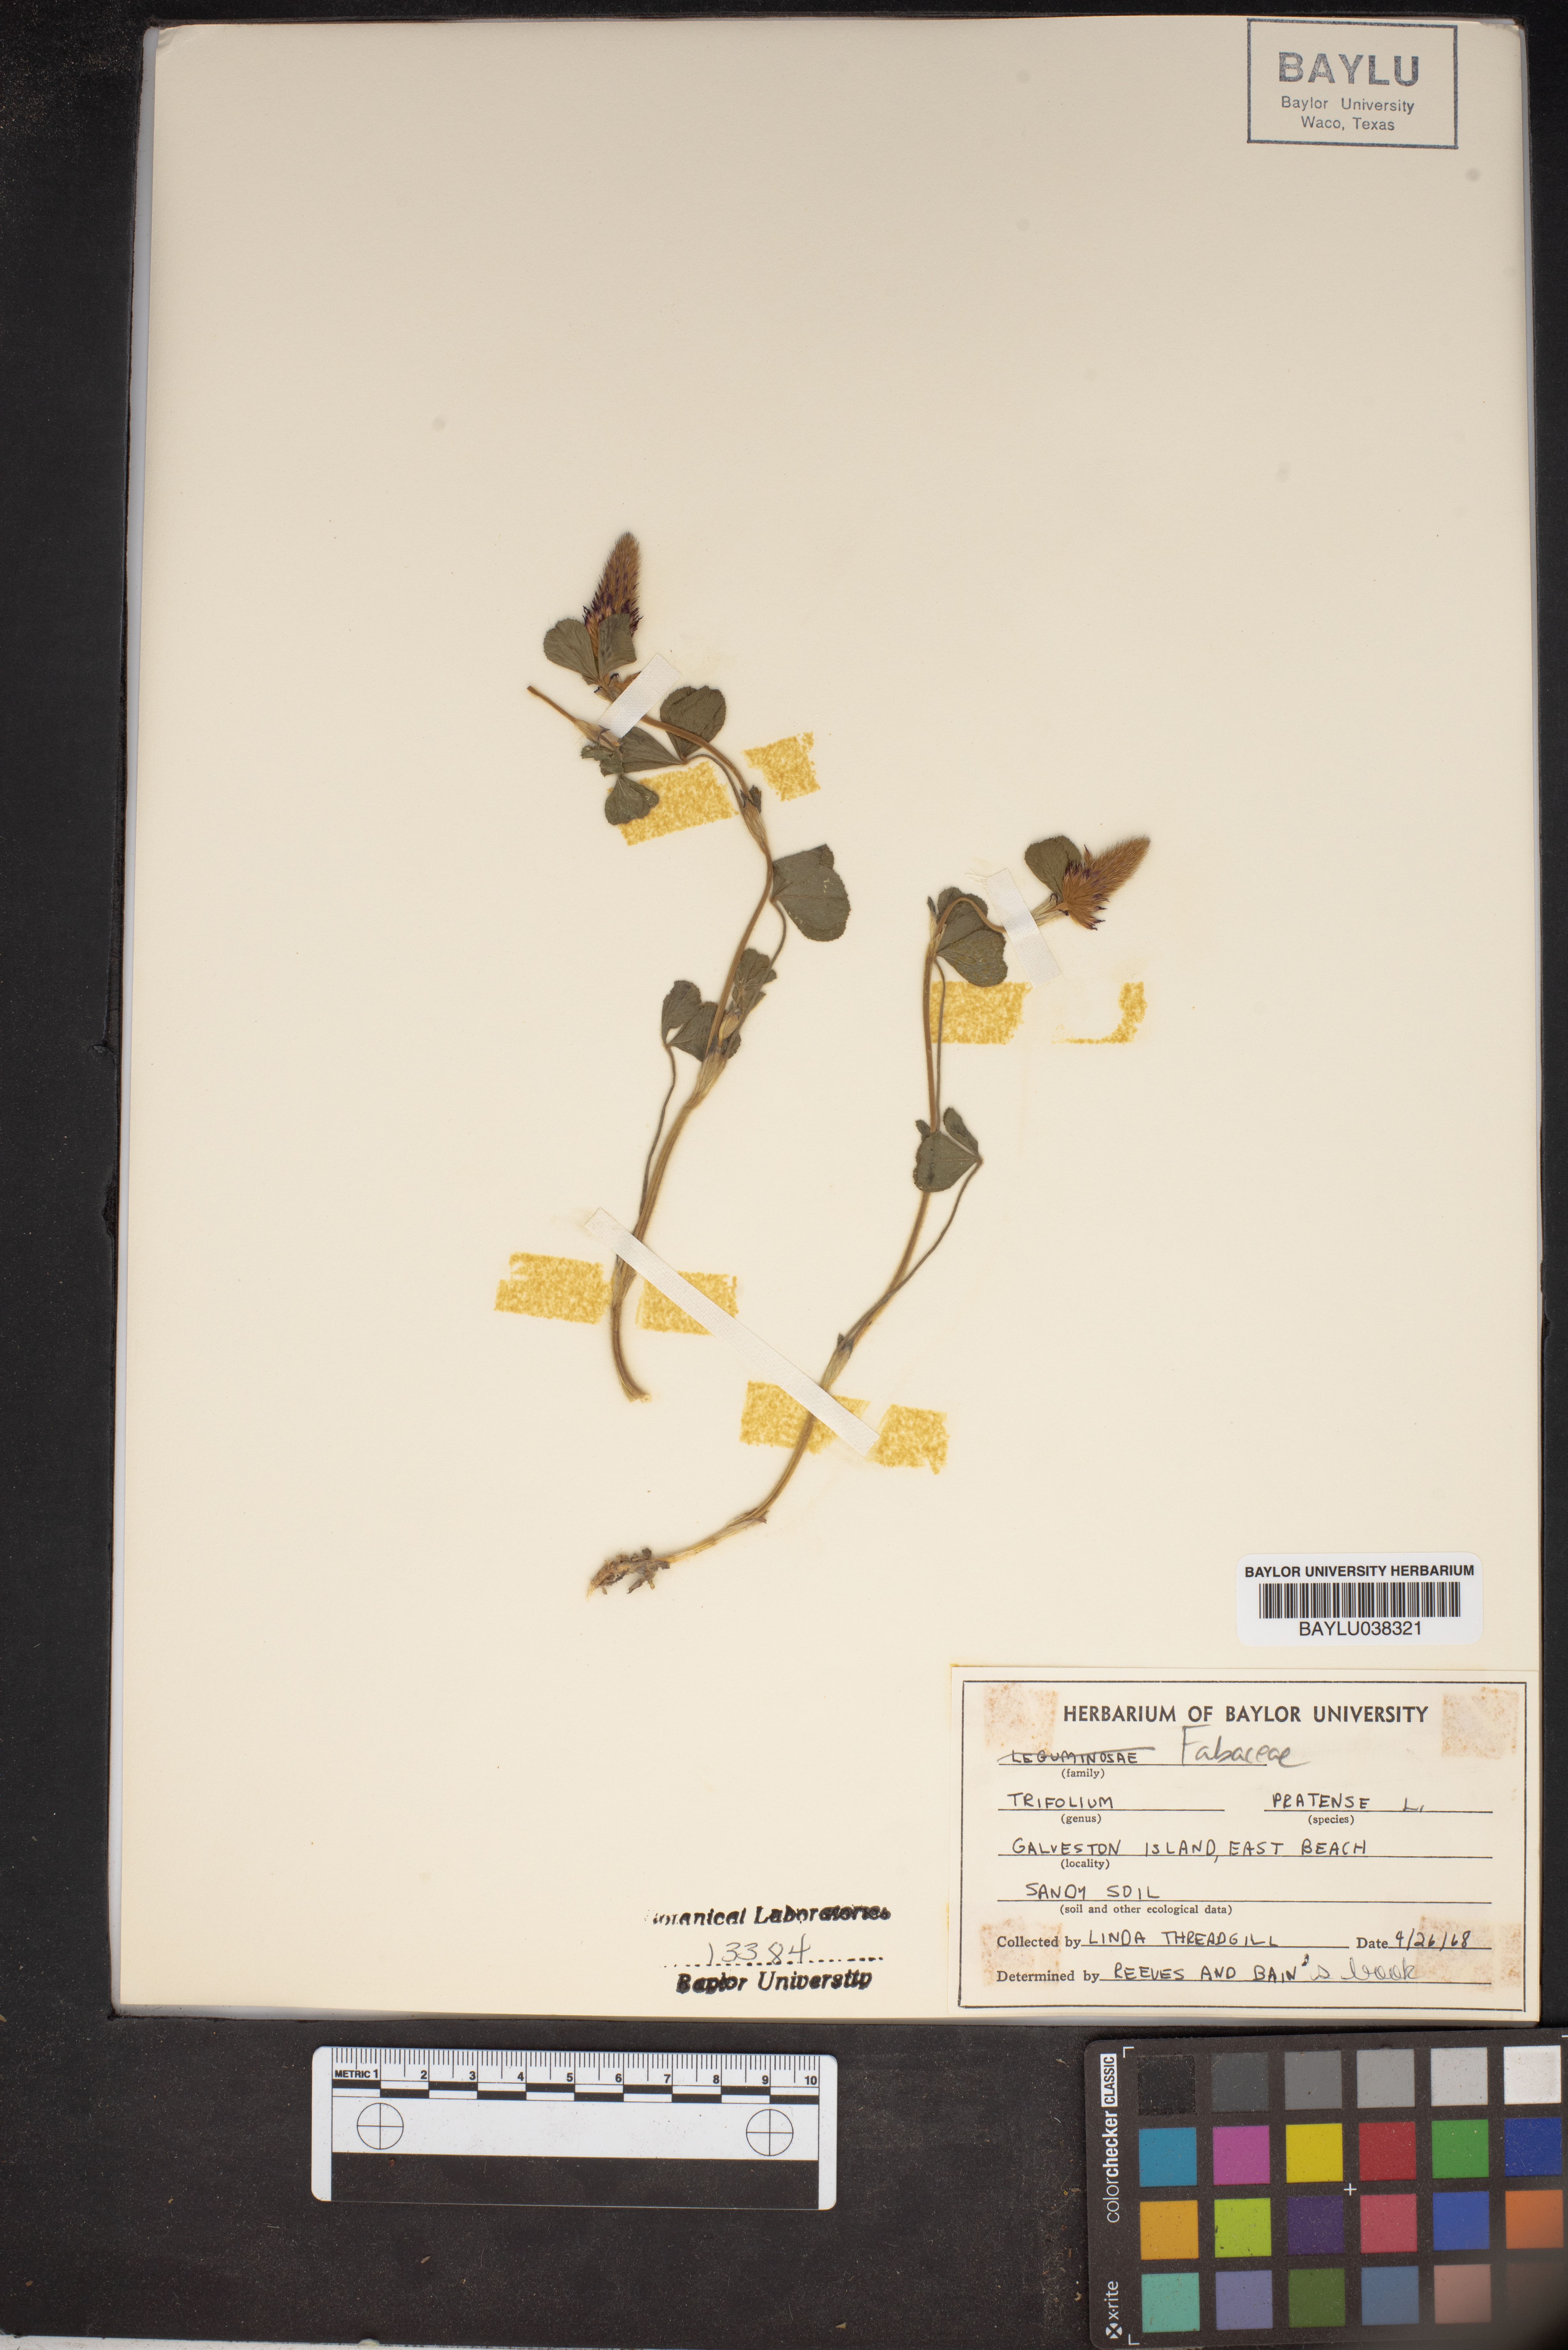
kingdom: Plantae
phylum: Tracheophyta
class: Magnoliopsida
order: Fabales
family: Fabaceae
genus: Trifolium
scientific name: Trifolium pratense
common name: Red clover
